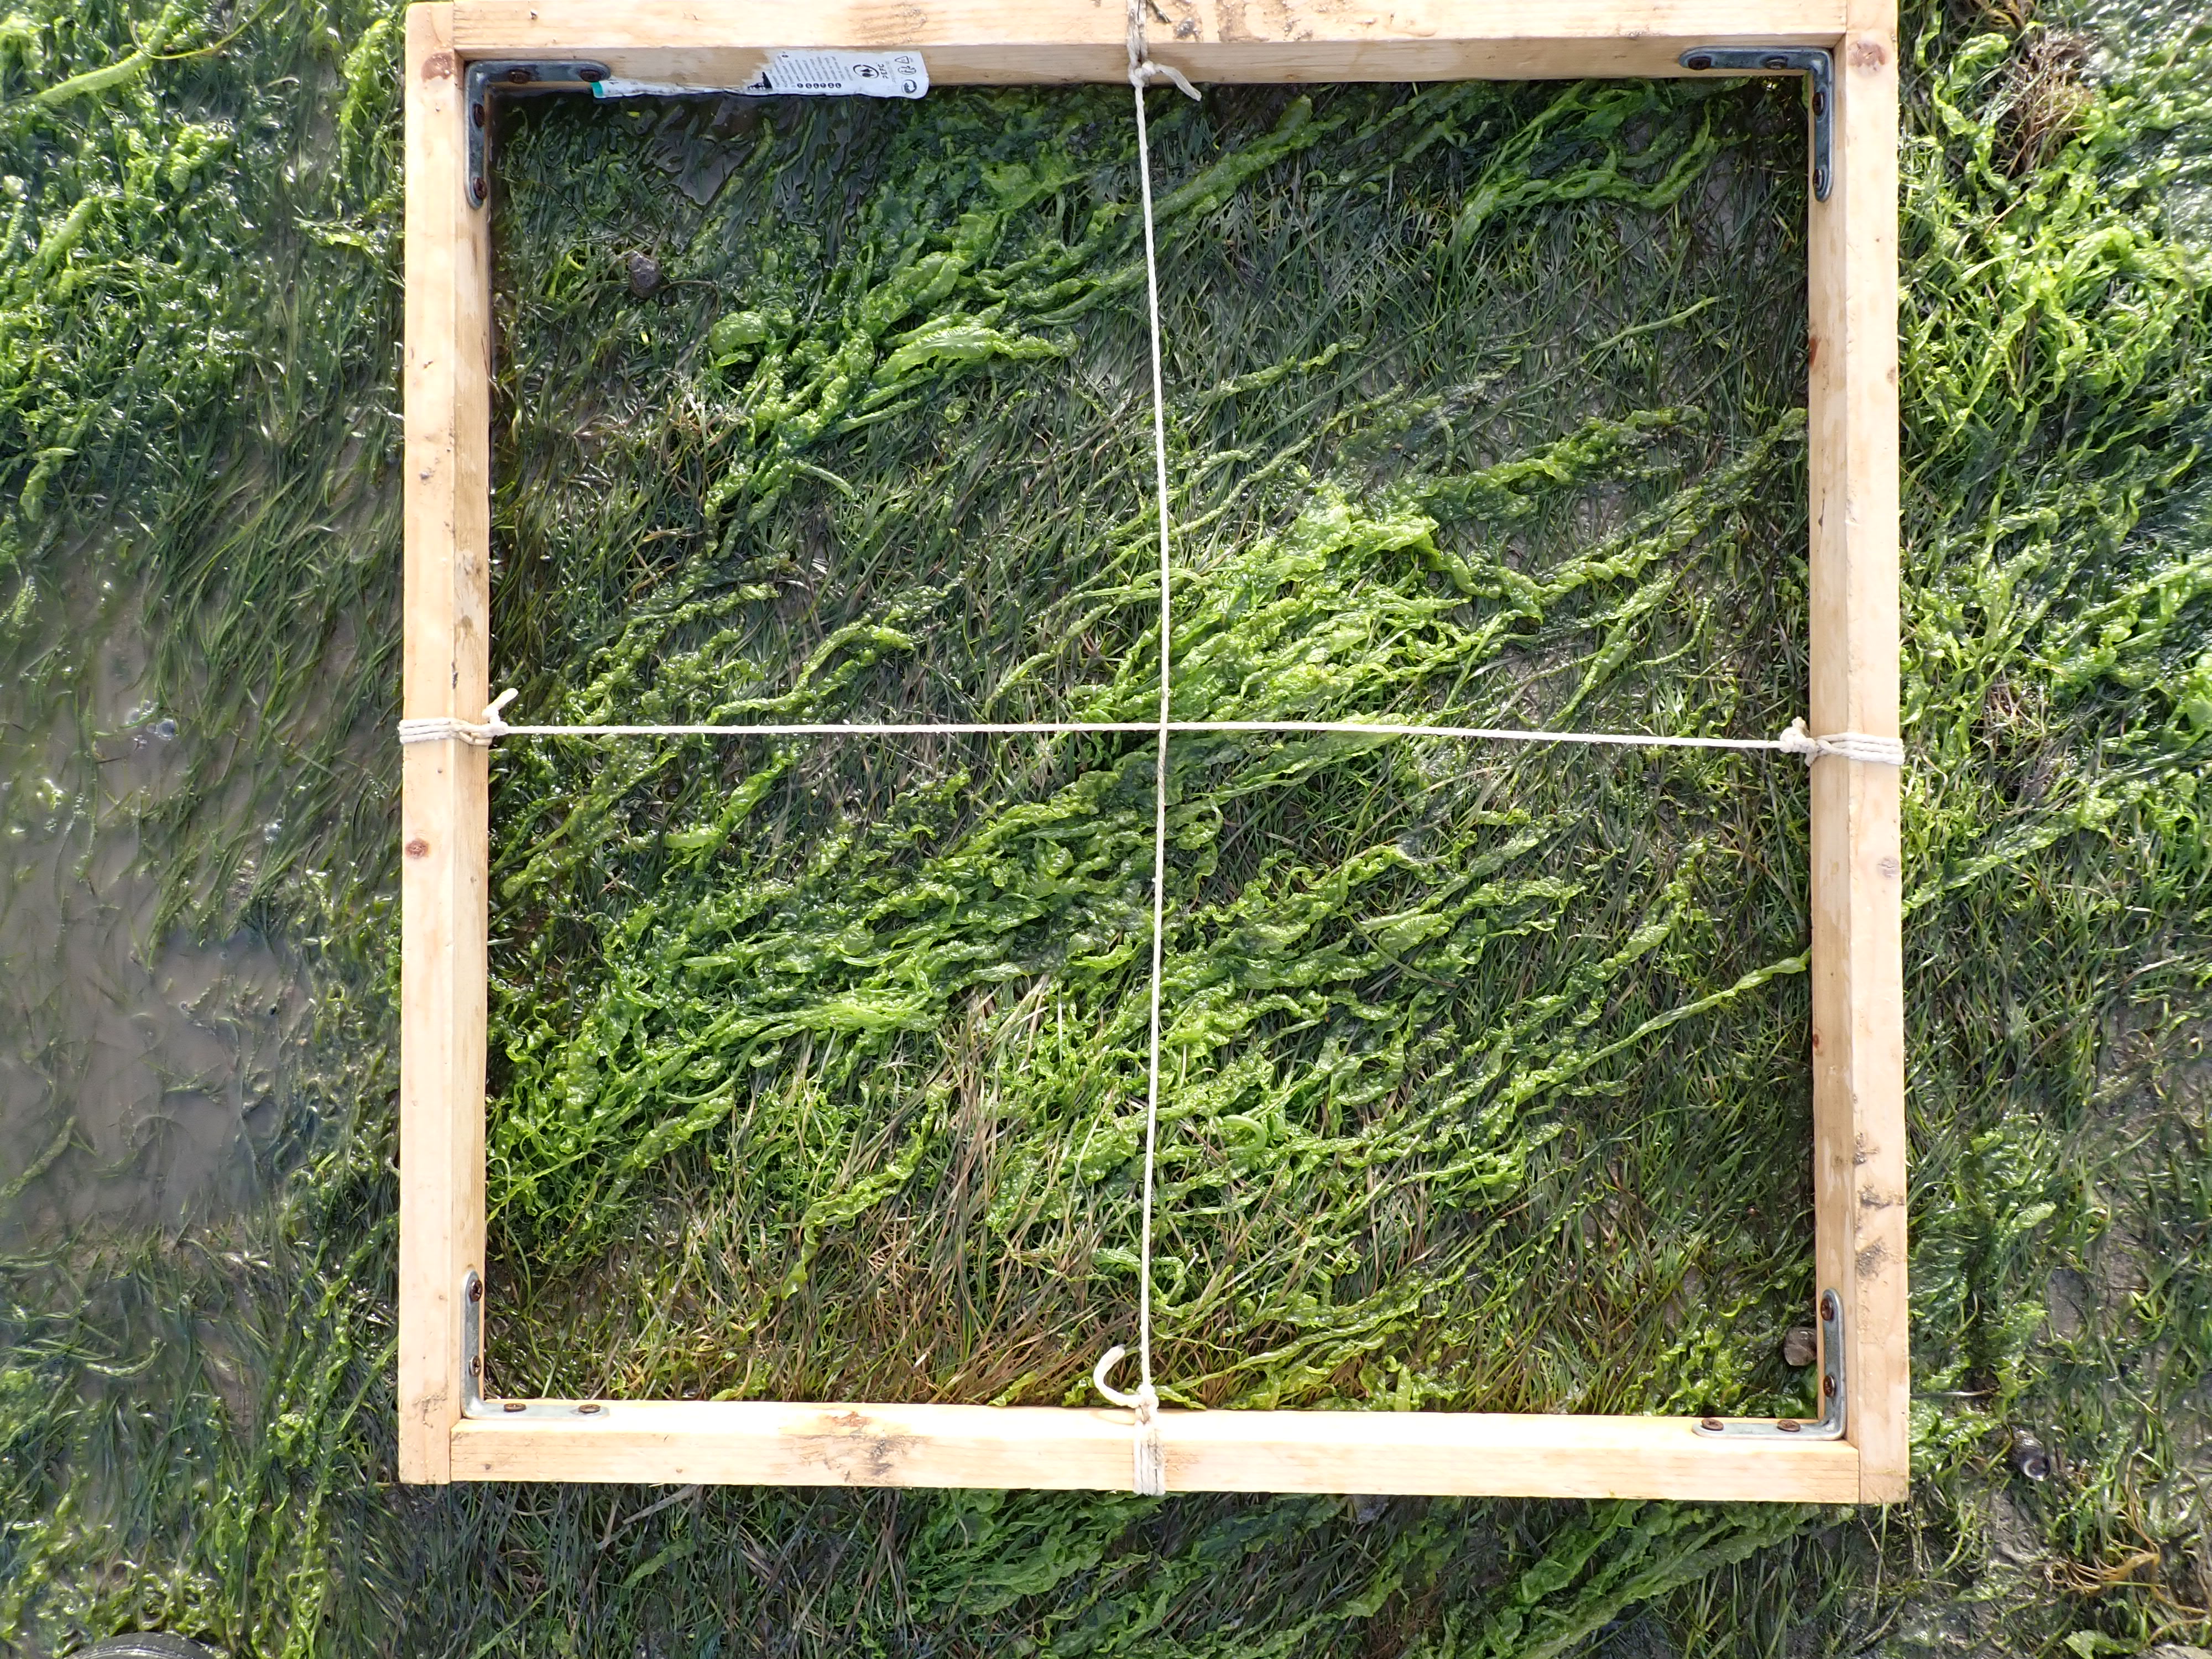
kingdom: Plantae
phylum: Chlorophyta
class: Ulvophyceae
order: Ulvales
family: Ulvaceae
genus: Ulva
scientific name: Ulva
